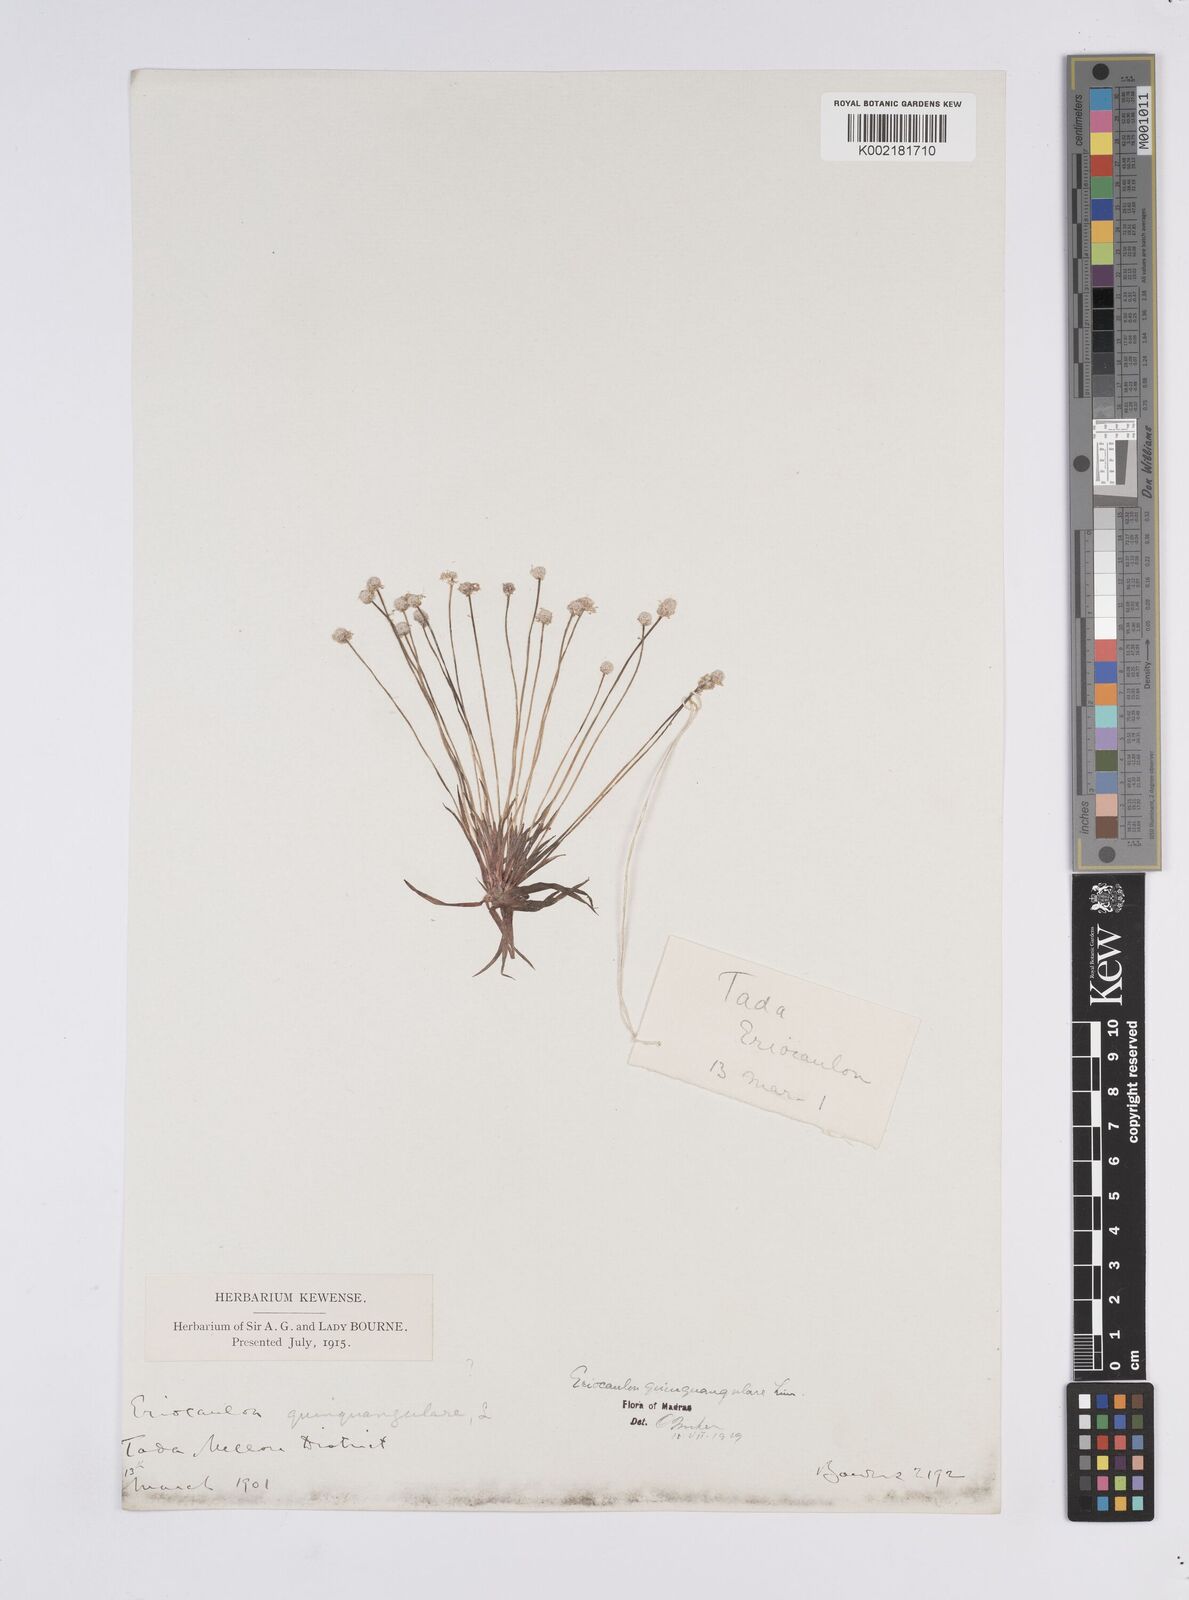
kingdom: Plantae
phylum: Tracheophyta
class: Liliopsida
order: Poales
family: Eriocaulaceae
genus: Eriocaulon
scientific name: Eriocaulon quinquangulare
